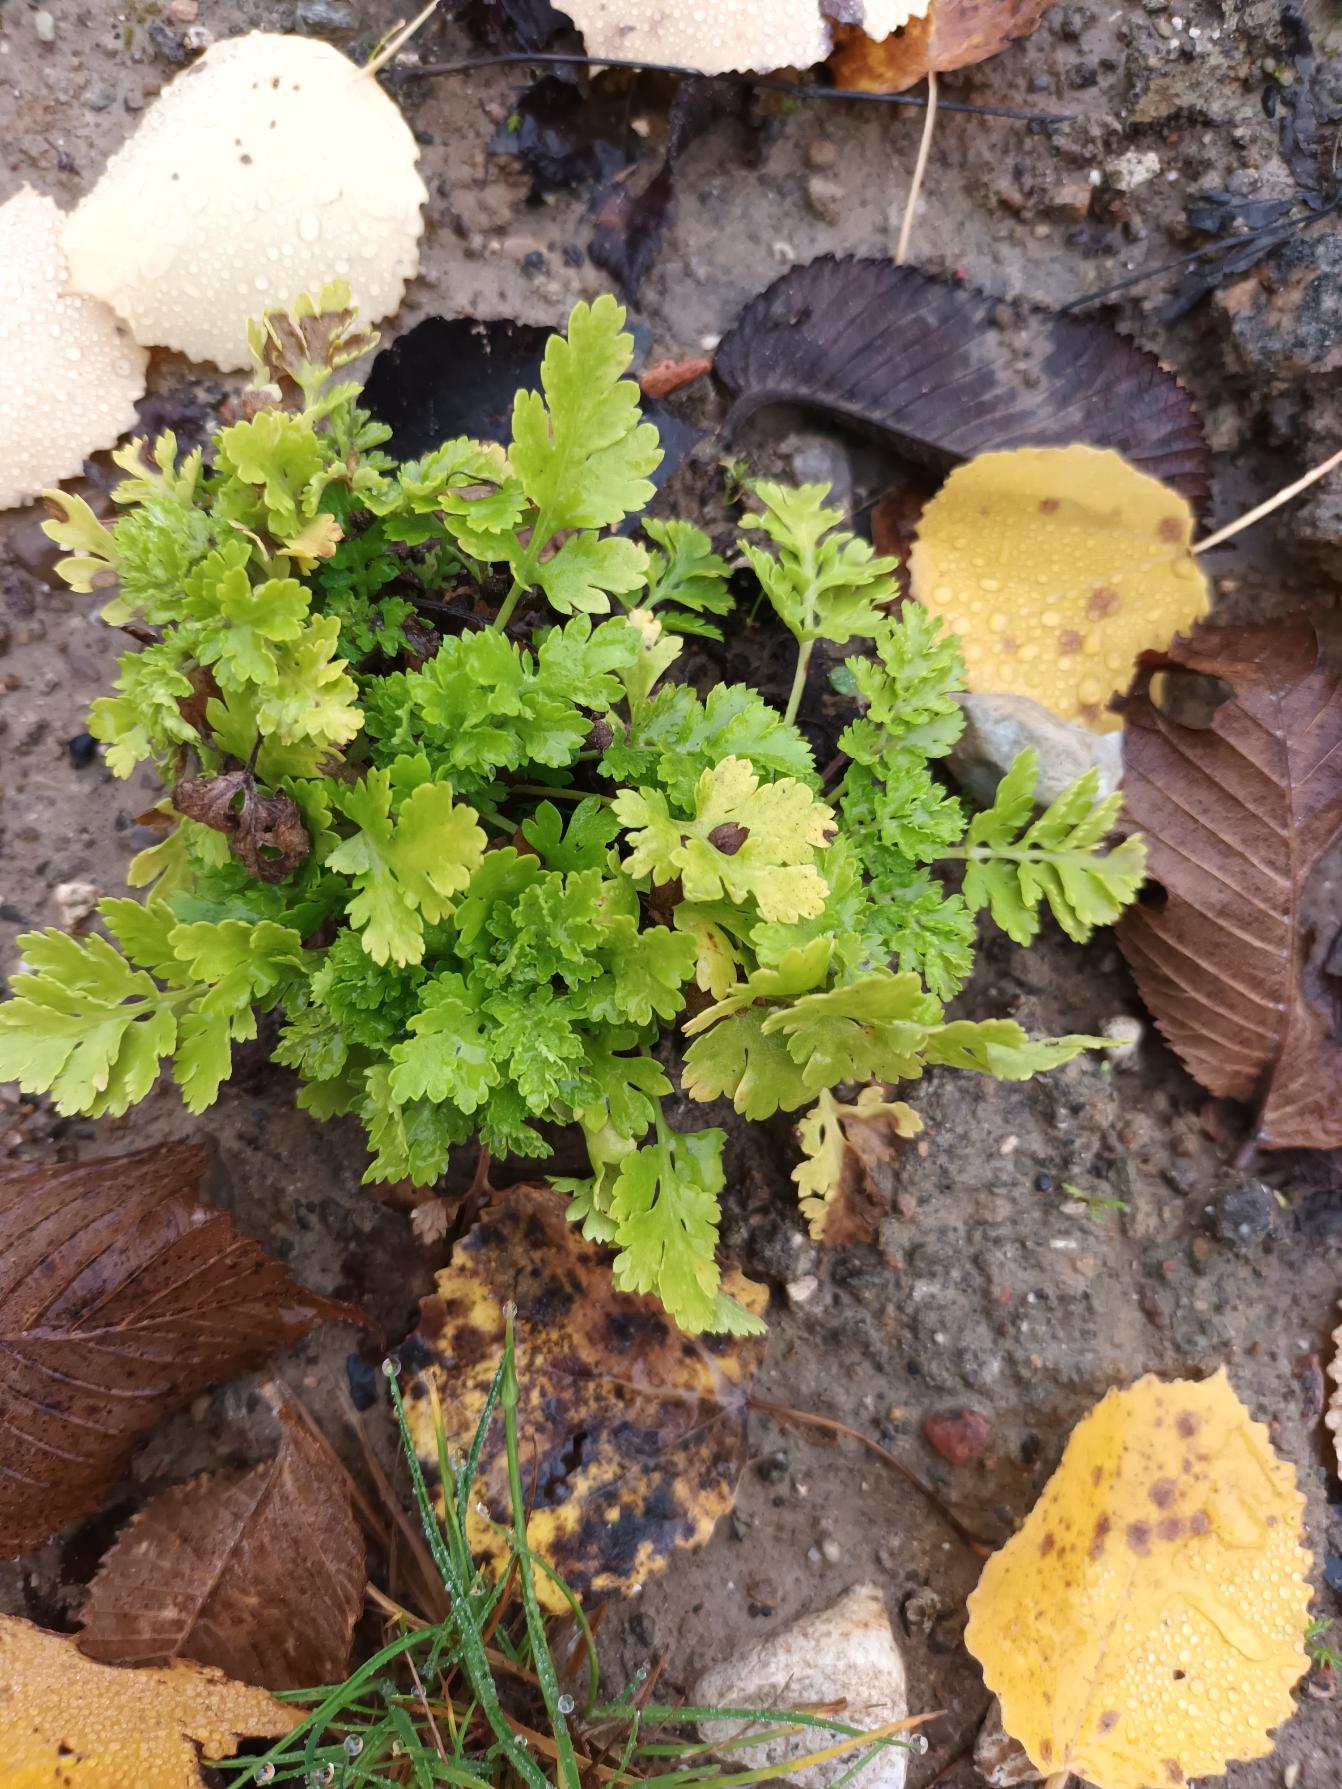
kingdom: Plantae
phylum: Tracheophyta
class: Magnoliopsida
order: Asterales
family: Asteraceae
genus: Tanacetum
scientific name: Tanacetum parthenium
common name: Matrem
